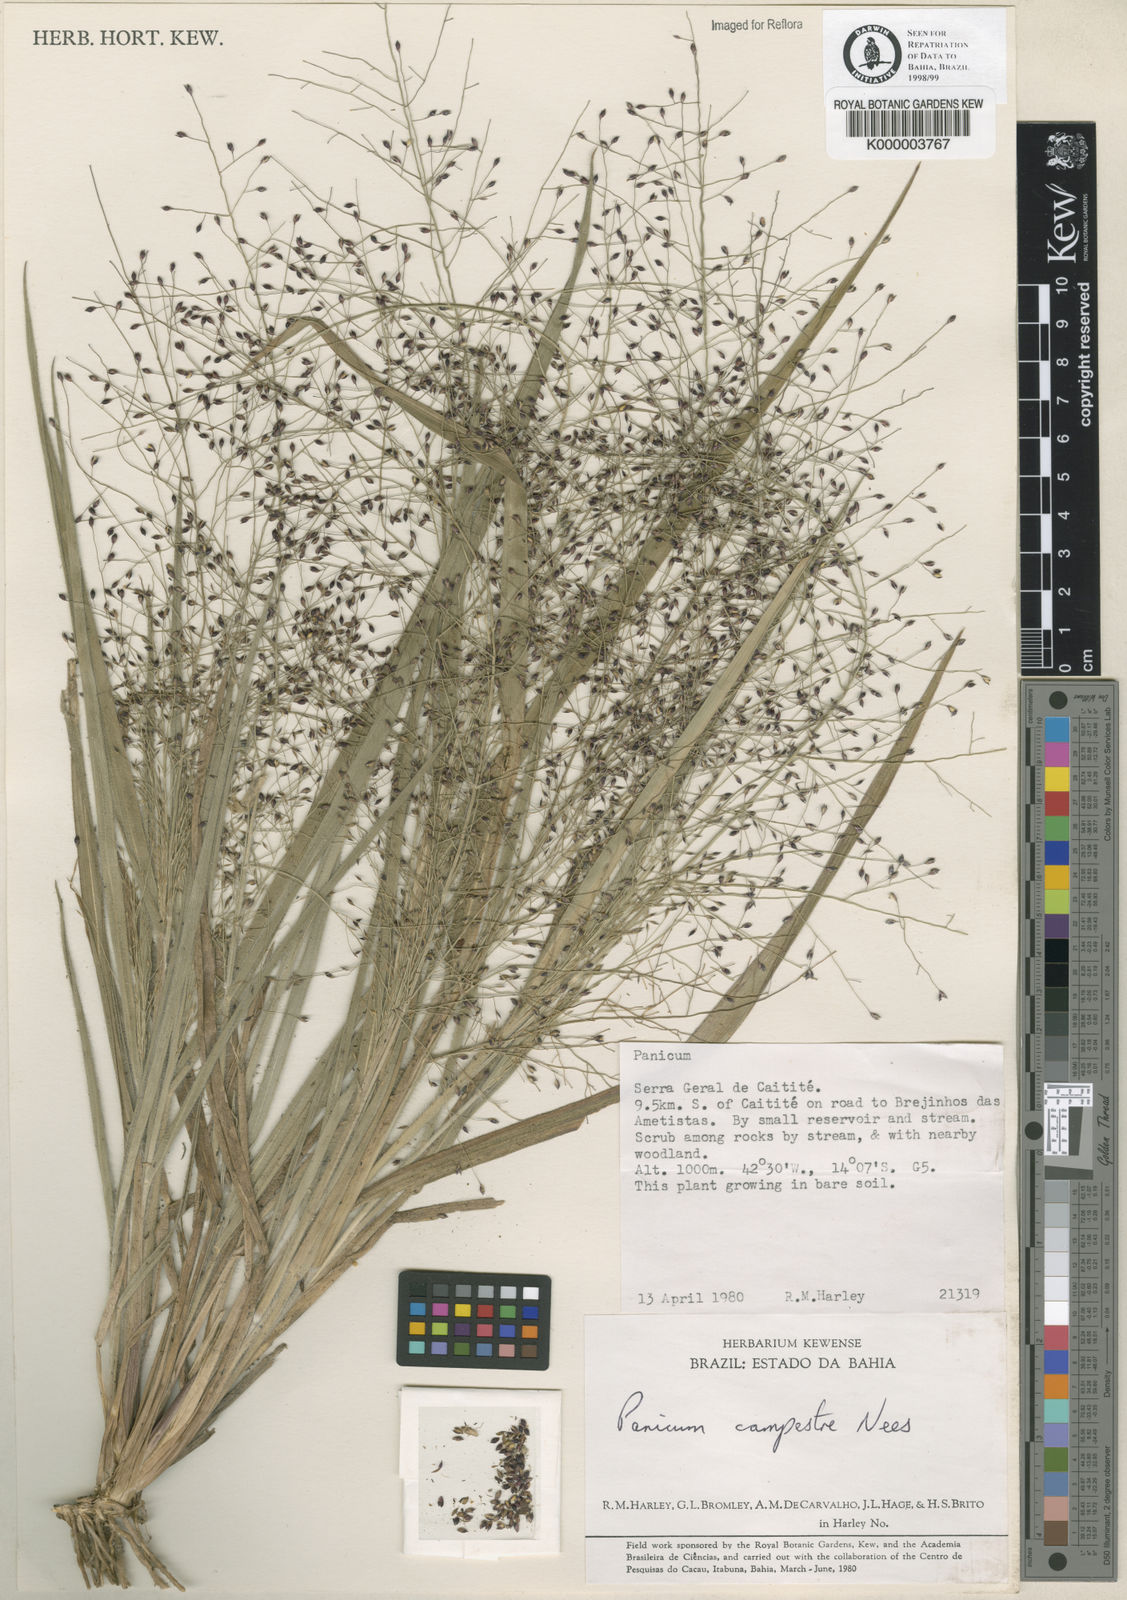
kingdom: Plantae
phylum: Tracheophyta
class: Liliopsida
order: Poales
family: Poaceae
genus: Panicum
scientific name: Panicum
